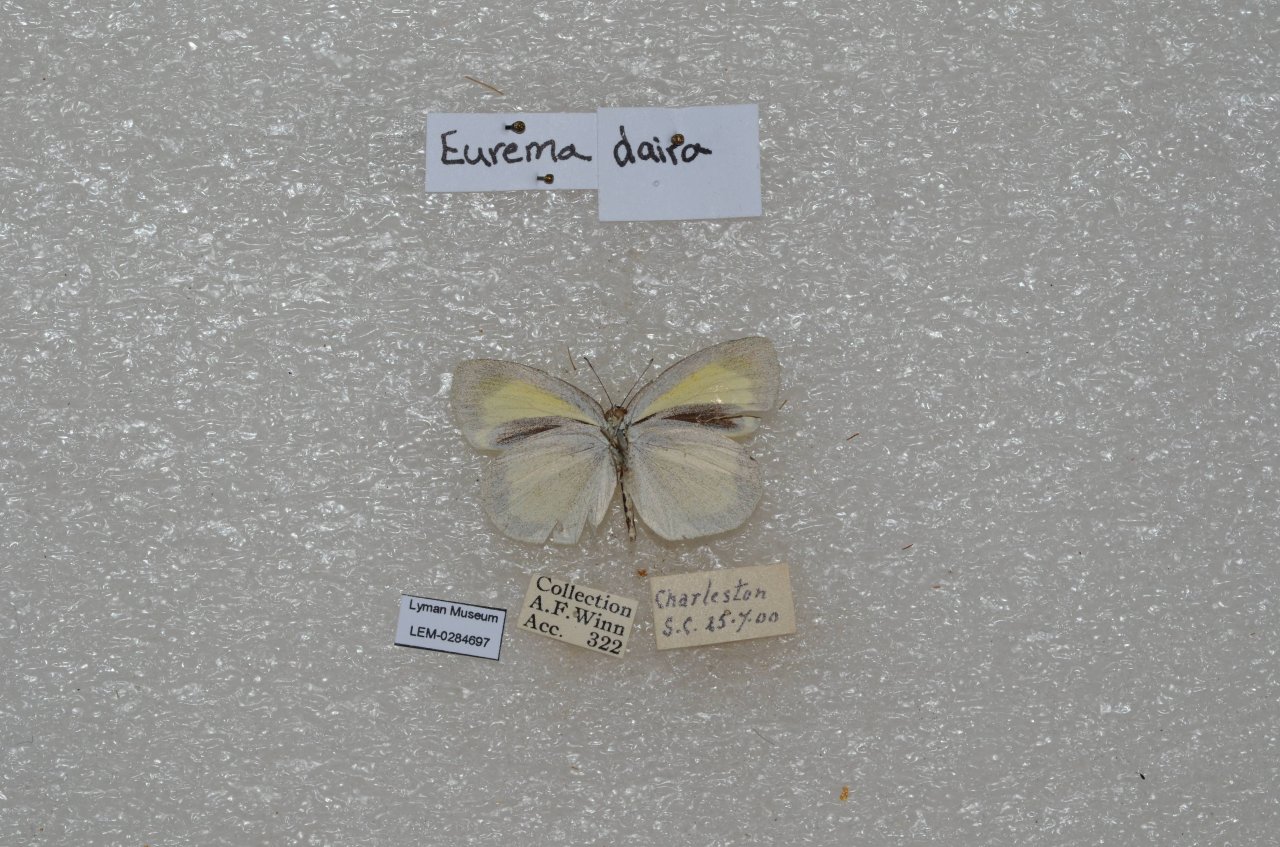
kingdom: Animalia
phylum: Arthropoda
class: Insecta
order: Lepidoptera
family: Pieridae
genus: Eurema
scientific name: Eurema daira
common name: Barred Yellow
